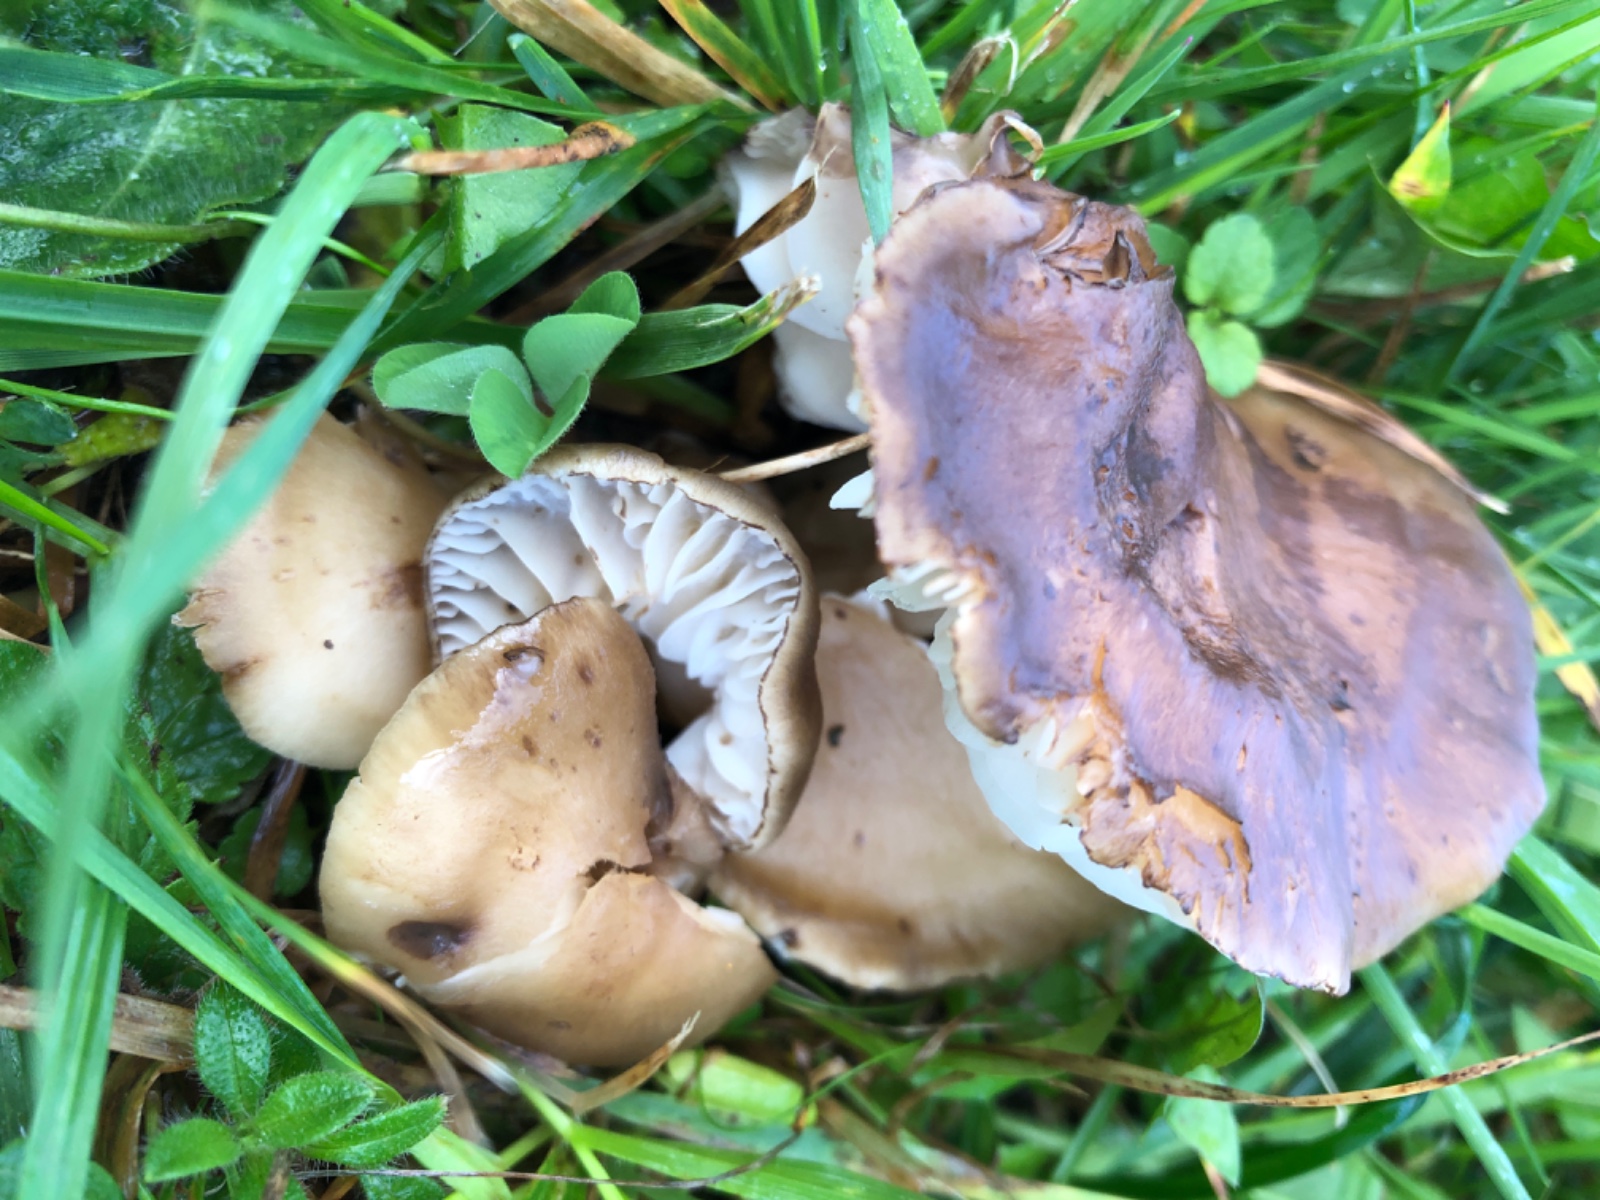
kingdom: Fungi
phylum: Basidiomycota
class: Agaricomycetes
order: Agaricales
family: Hygrophoraceae
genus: Hygrocybe
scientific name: Hygrocybe ingrata
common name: Jensens vokshat
